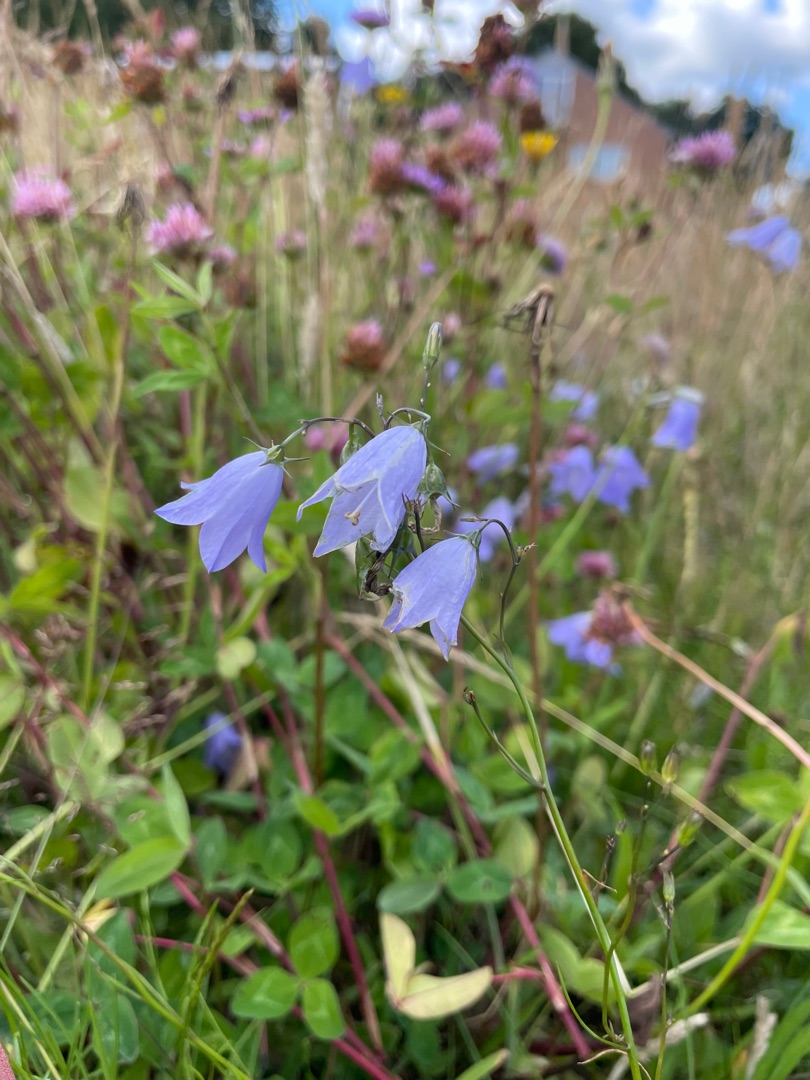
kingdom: Plantae
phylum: Tracheophyta
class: Magnoliopsida
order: Asterales
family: Campanulaceae
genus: Campanula
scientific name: Campanula rotundifolia
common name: Liden klokke
